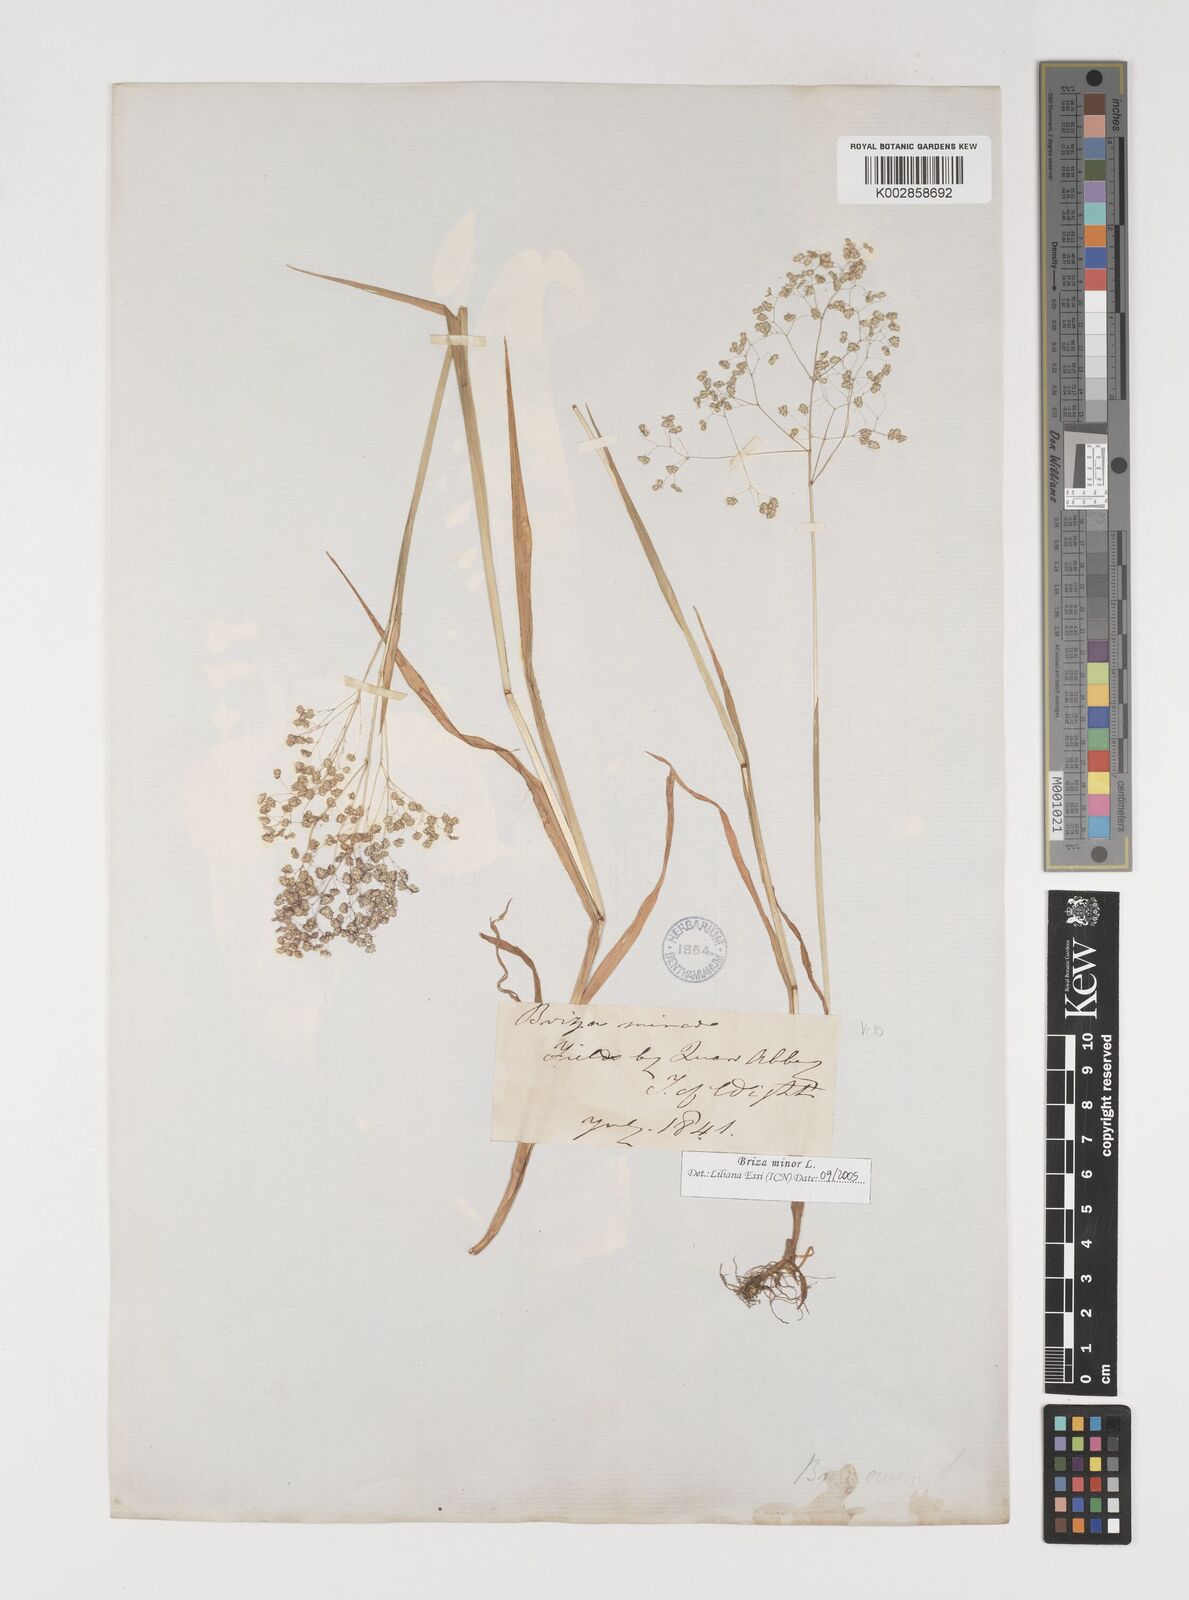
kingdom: Plantae
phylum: Tracheophyta
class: Liliopsida
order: Poales
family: Poaceae
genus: Briza
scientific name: Briza minor
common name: Lesser quaking-grass
